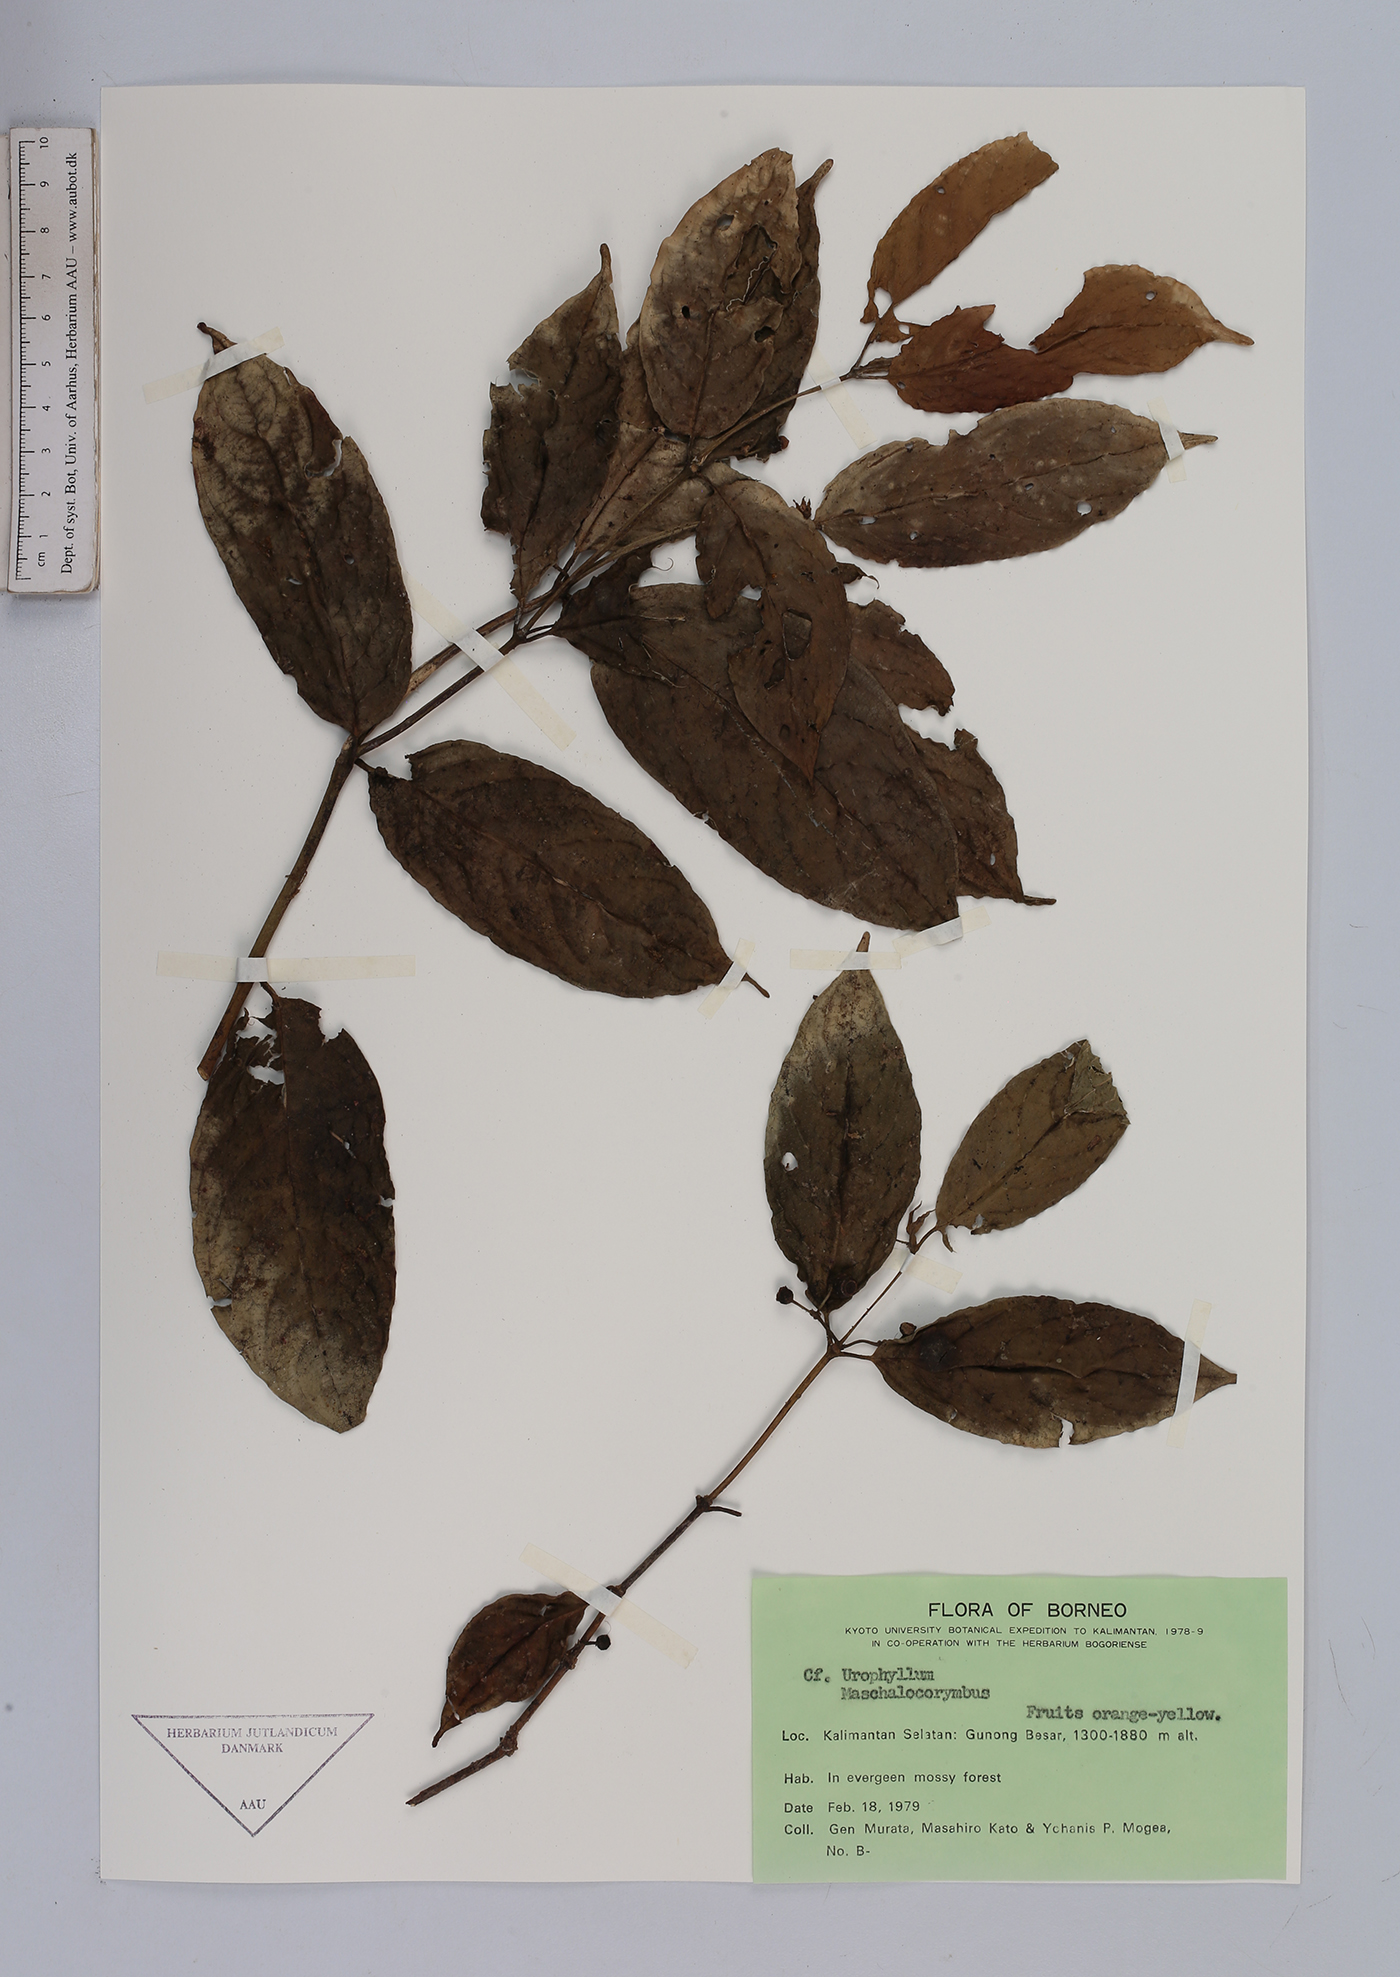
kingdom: Plantae
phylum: Tracheophyta
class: Magnoliopsida
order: Gentianales
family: Rubiaceae
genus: Urophyllum
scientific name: Urophyllum
